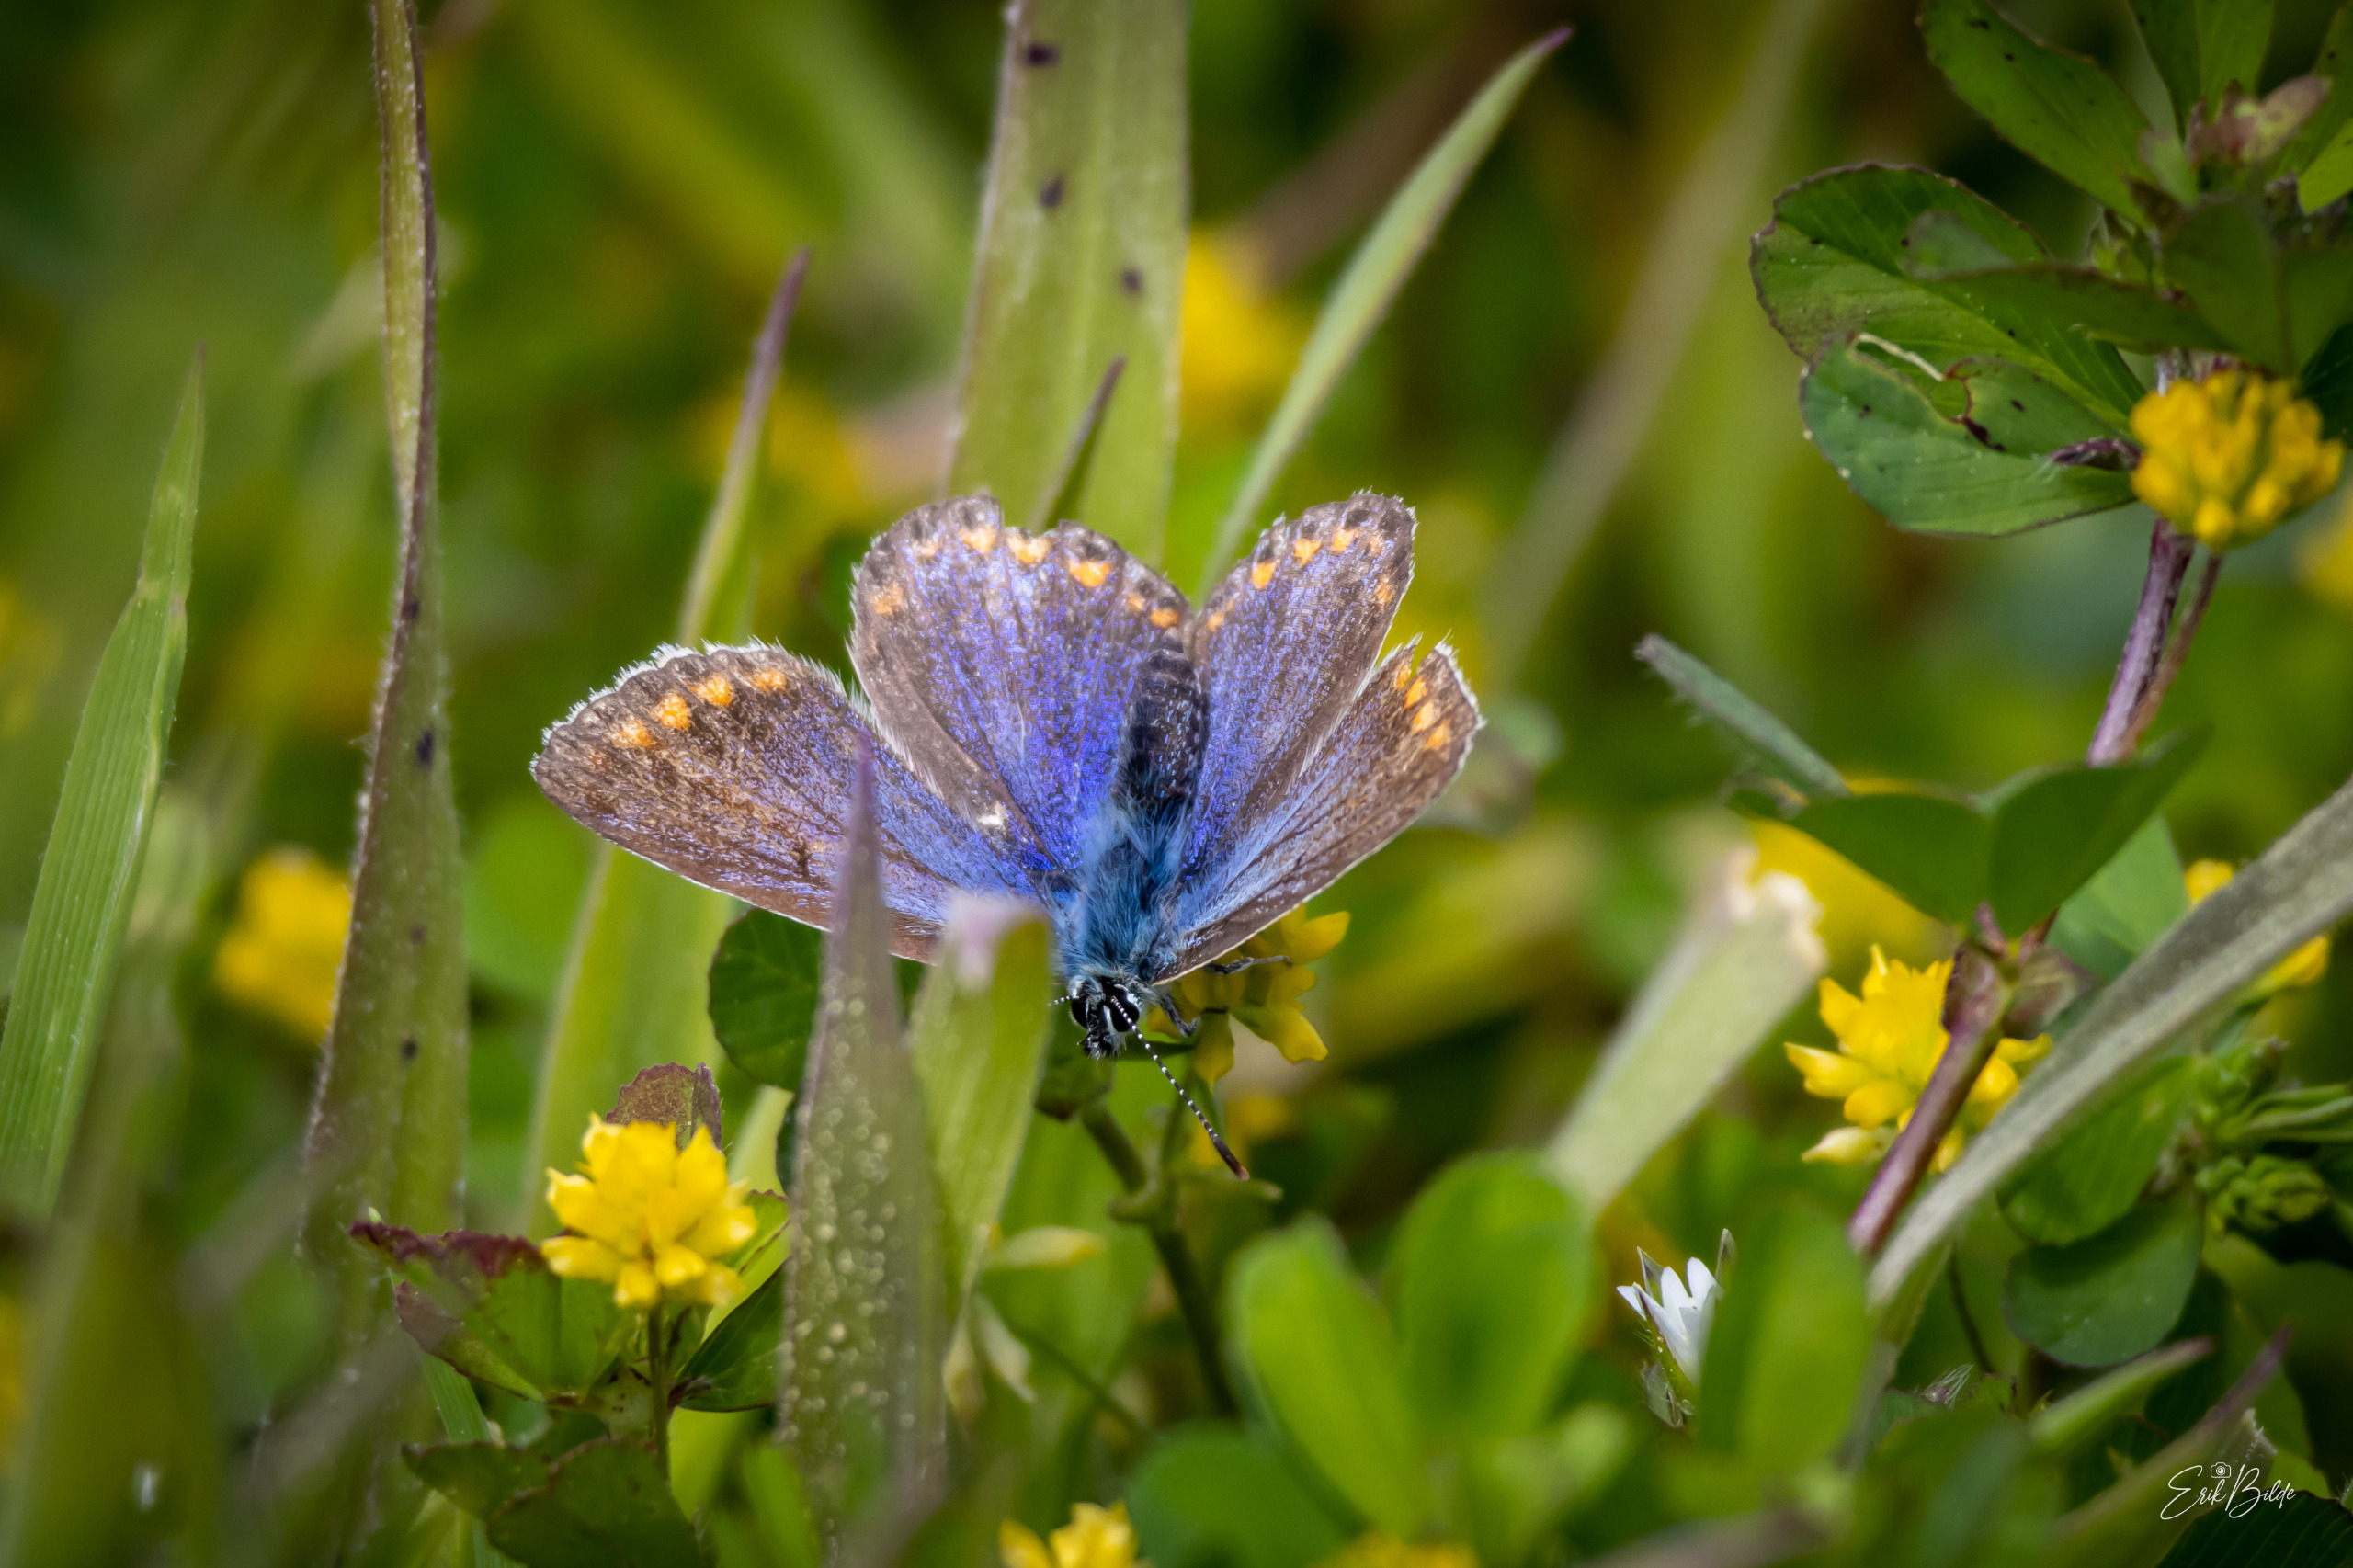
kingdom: Animalia
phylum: Arthropoda
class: Insecta
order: Lepidoptera
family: Lycaenidae
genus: Polyommatus
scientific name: Polyommatus icarus
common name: Almindelig blåfugl
